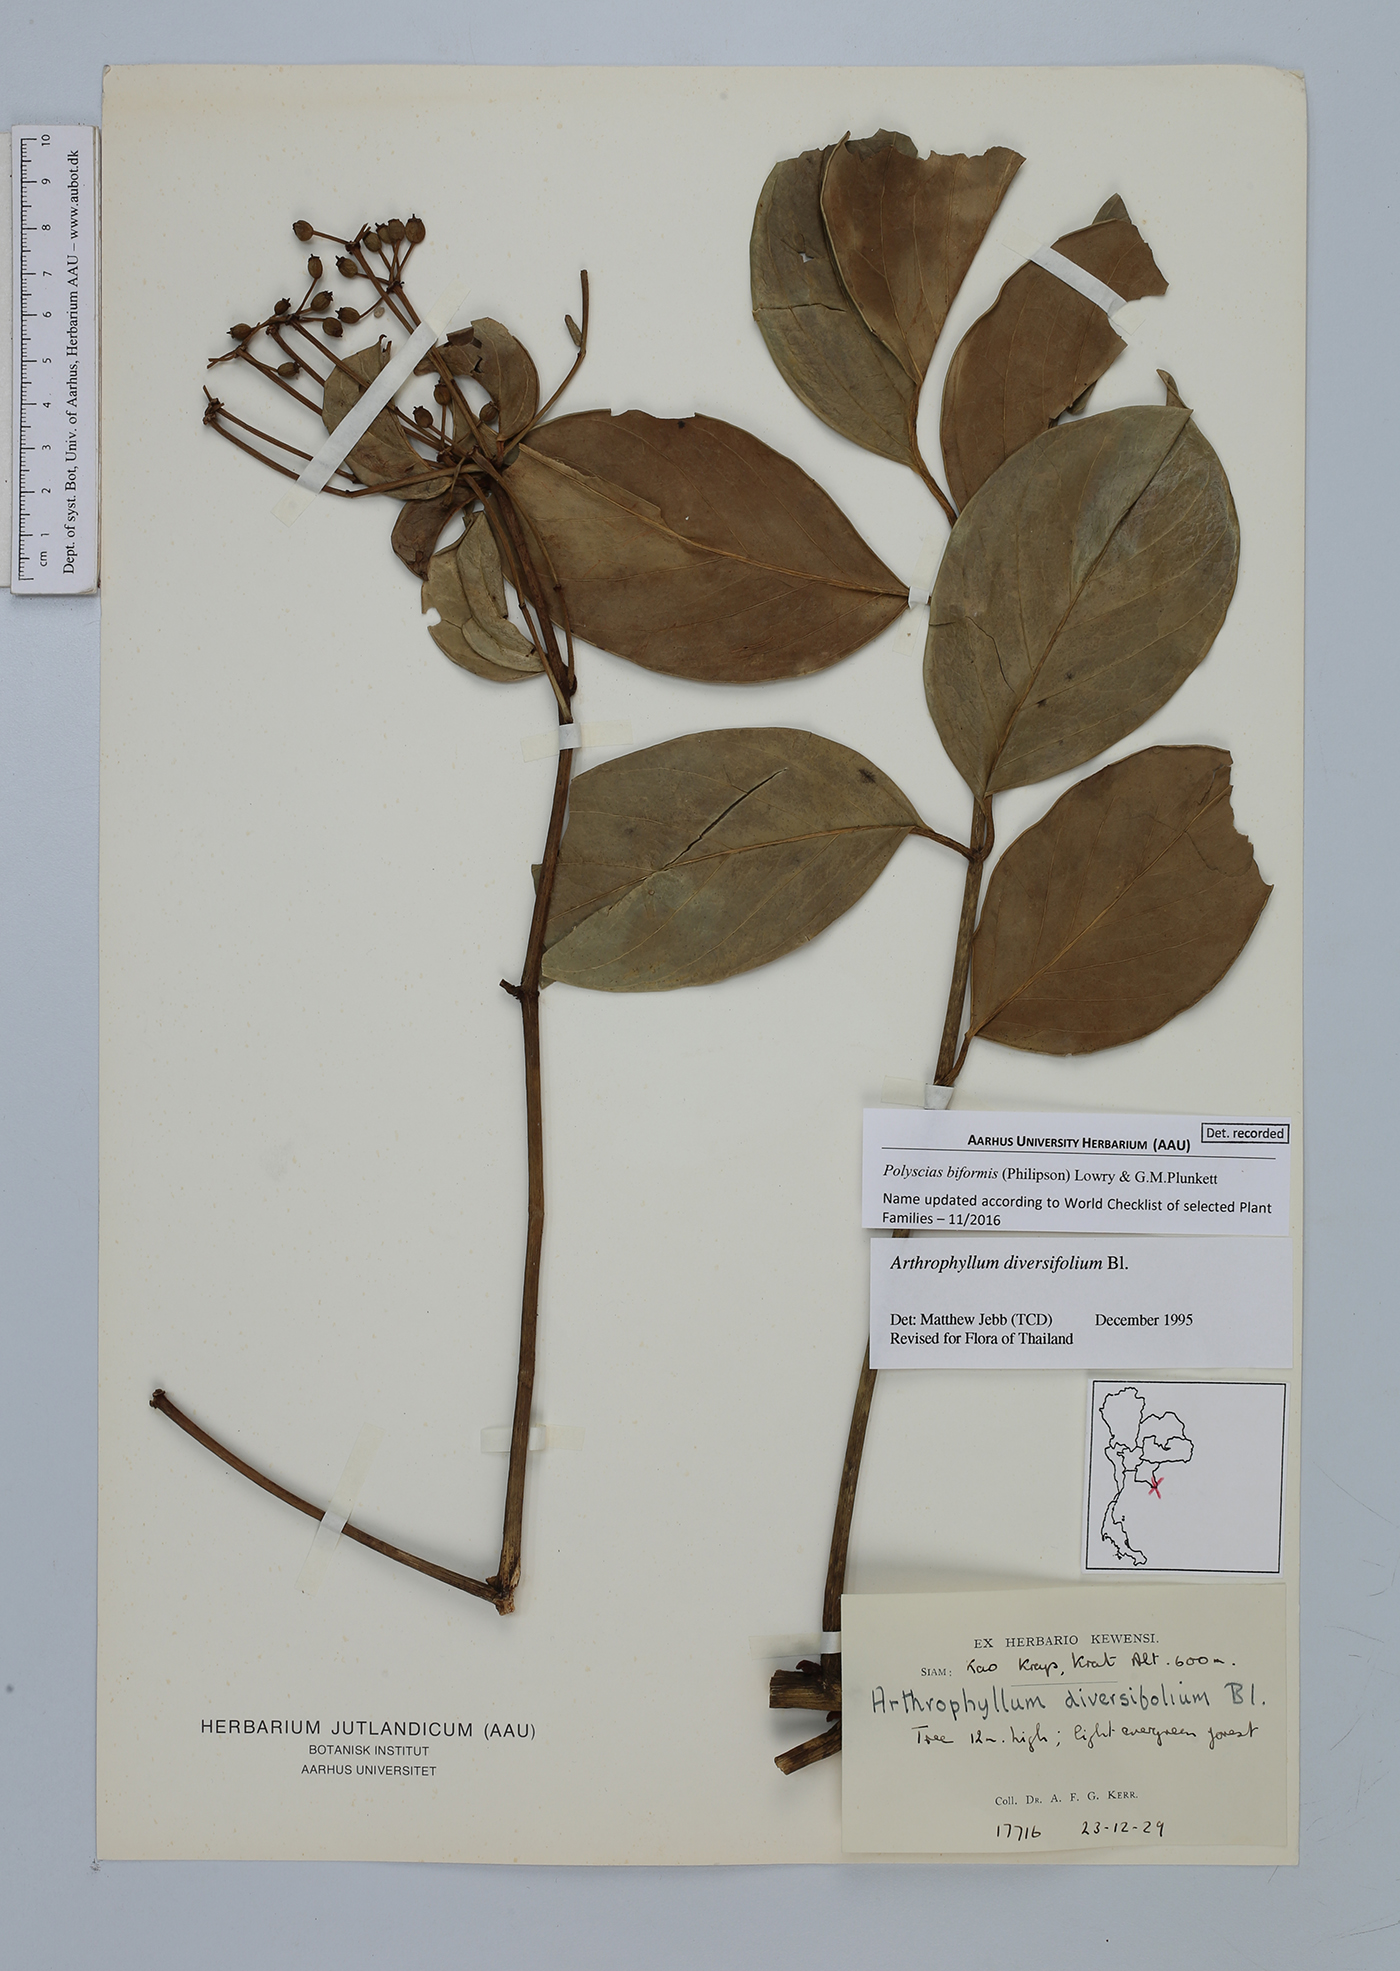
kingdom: Plantae
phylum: Tracheophyta
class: Magnoliopsida
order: Apiales
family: Araliaceae
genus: Polyscias
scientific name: Polyscias biformis
